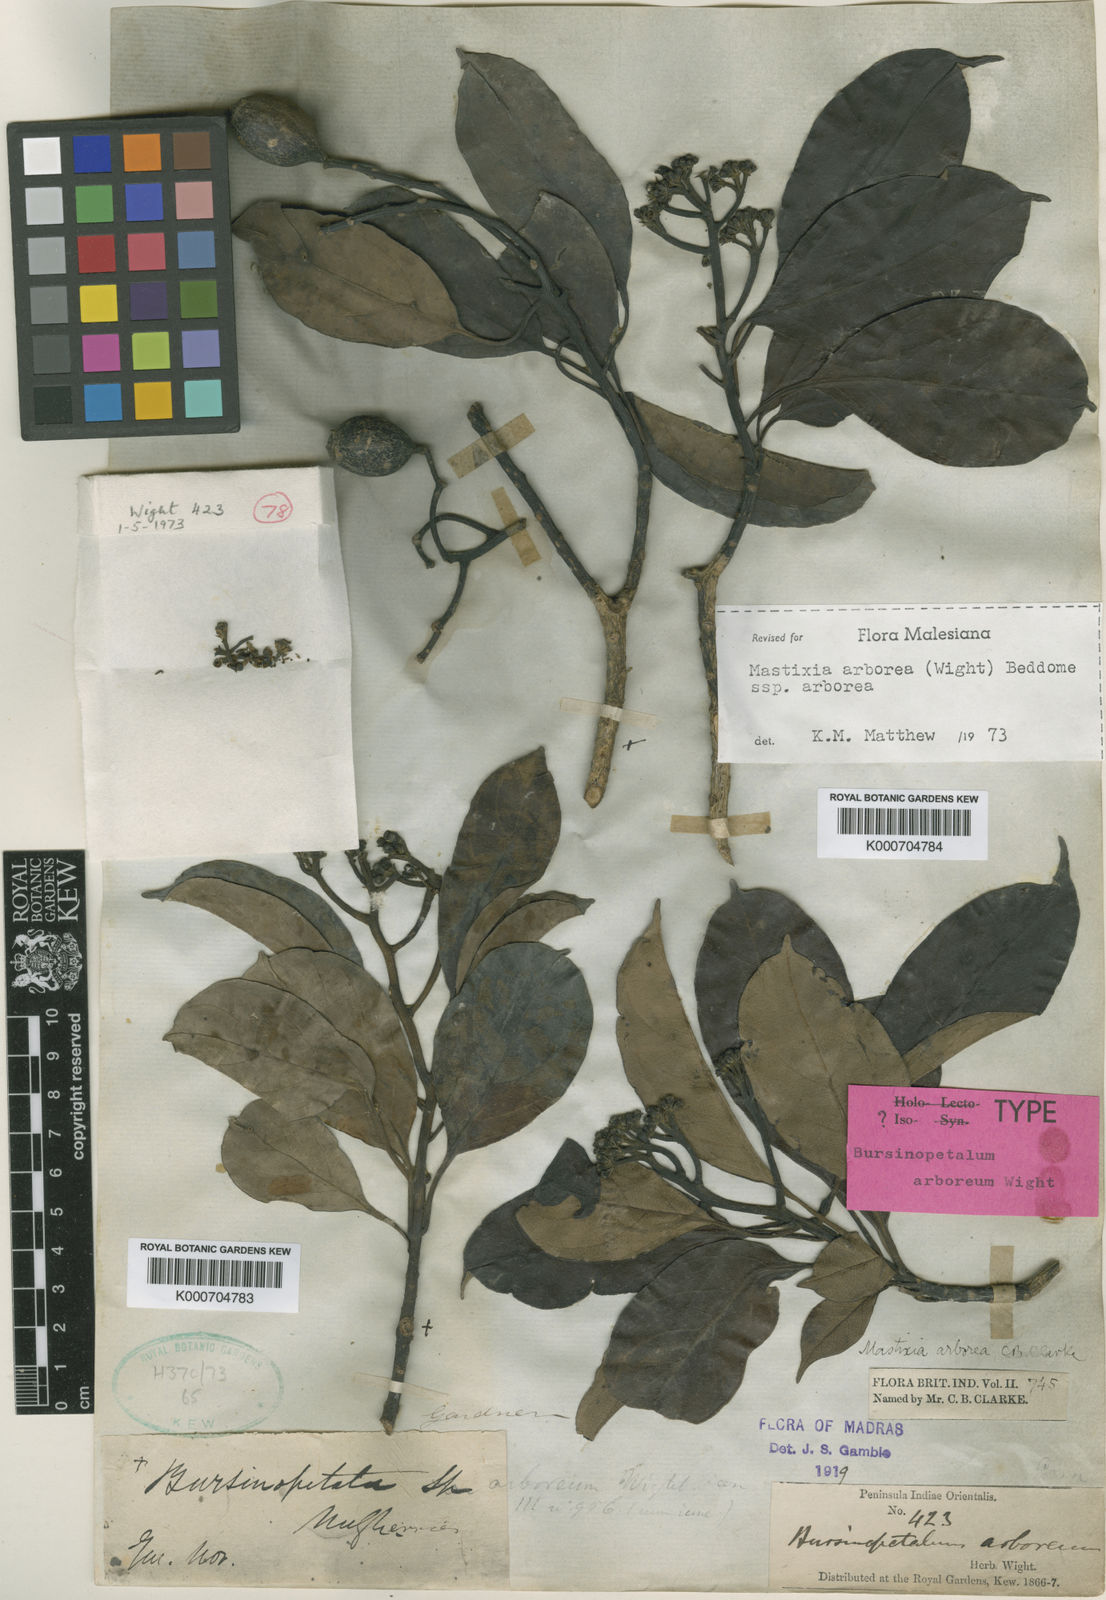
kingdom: Plantae
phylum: Tracheophyta
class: Magnoliopsida
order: Cornales
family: Nyssaceae
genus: Mastixia
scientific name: Mastixia arborea
